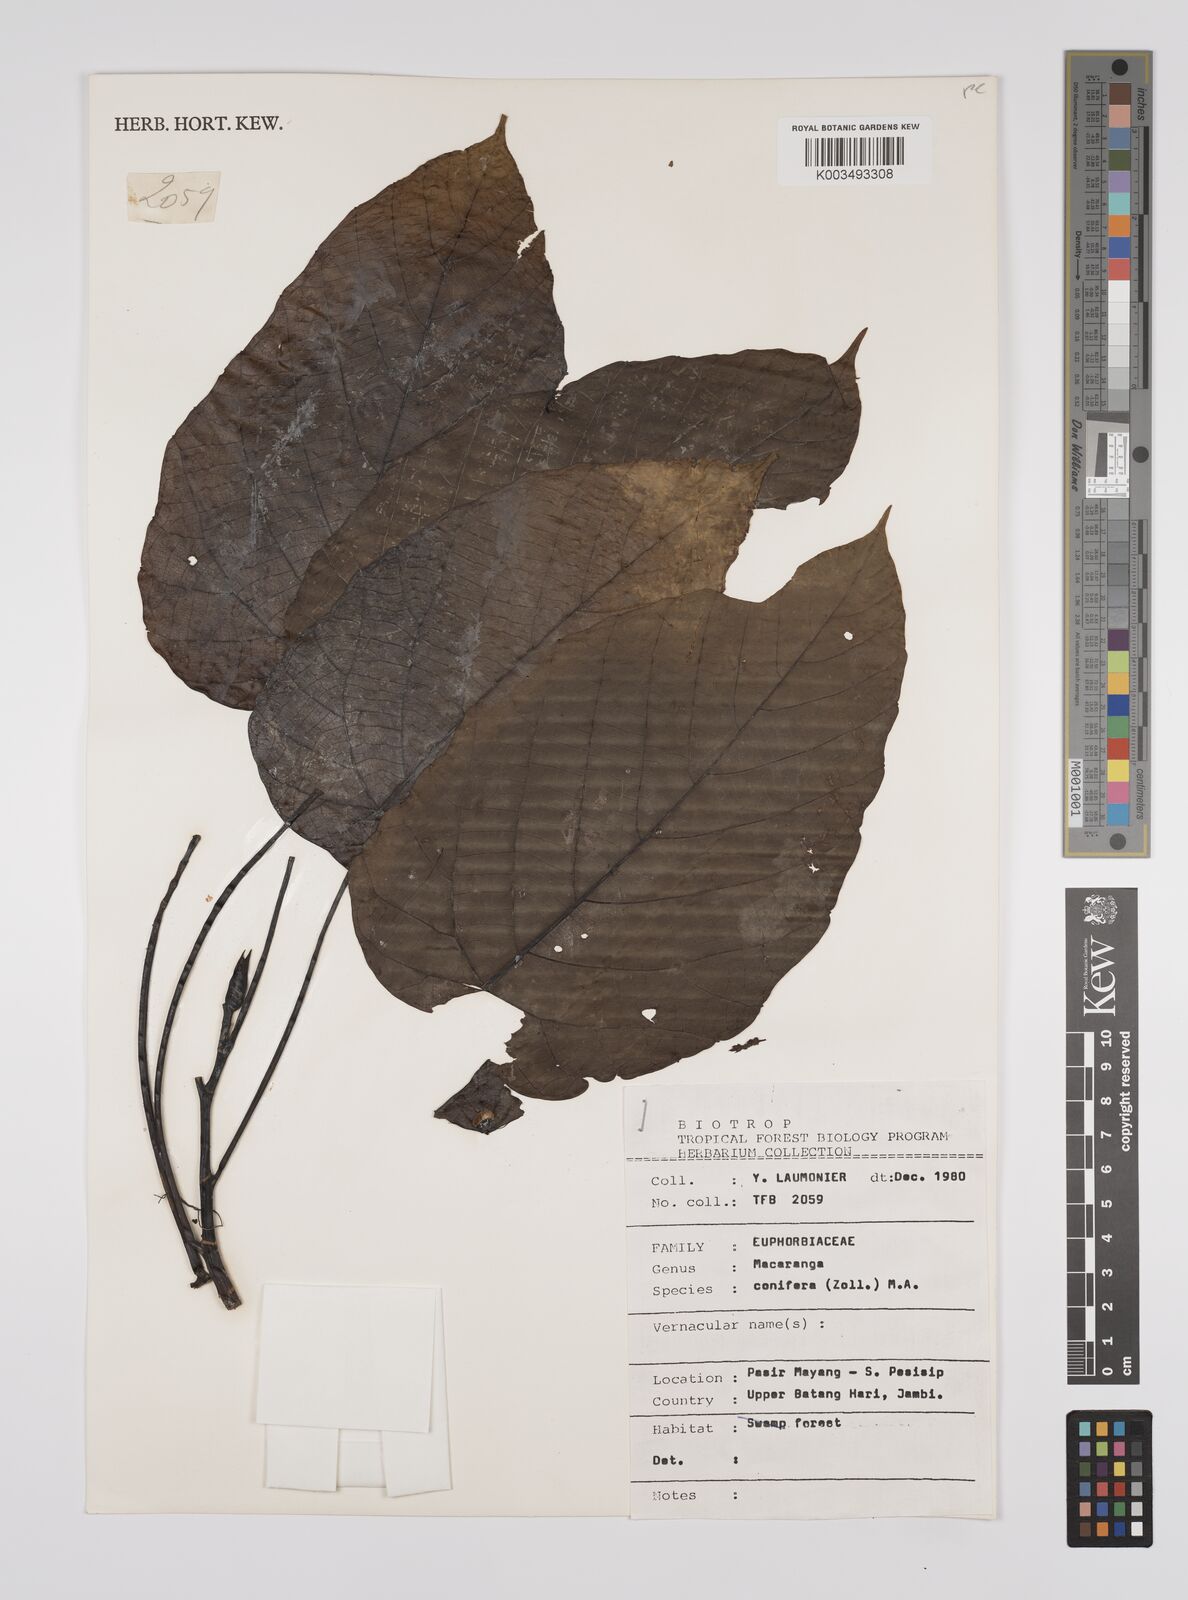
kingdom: Plantae
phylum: Tracheophyta
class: Magnoliopsida
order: Malpighiales
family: Euphorbiaceae
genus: Macaranga
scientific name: Macaranga conifera
